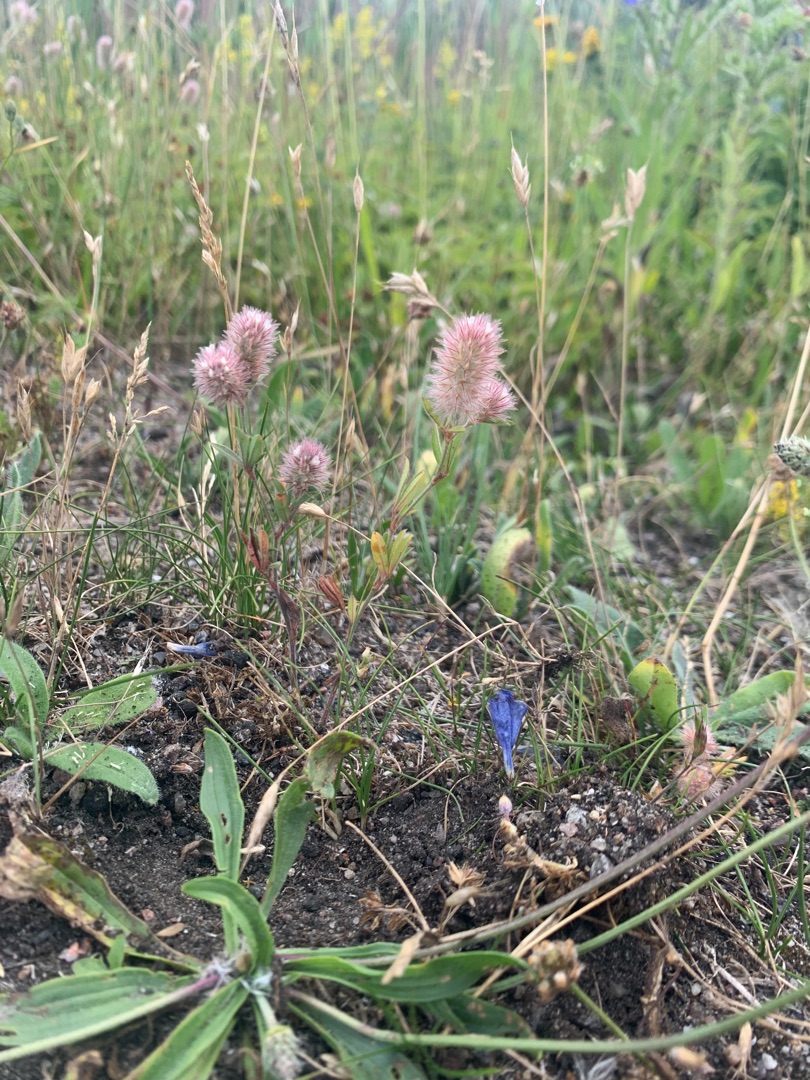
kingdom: Plantae
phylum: Tracheophyta
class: Magnoliopsida
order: Fabales
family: Fabaceae
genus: Trifolium
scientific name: Trifolium arvense
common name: Hare-kløver
